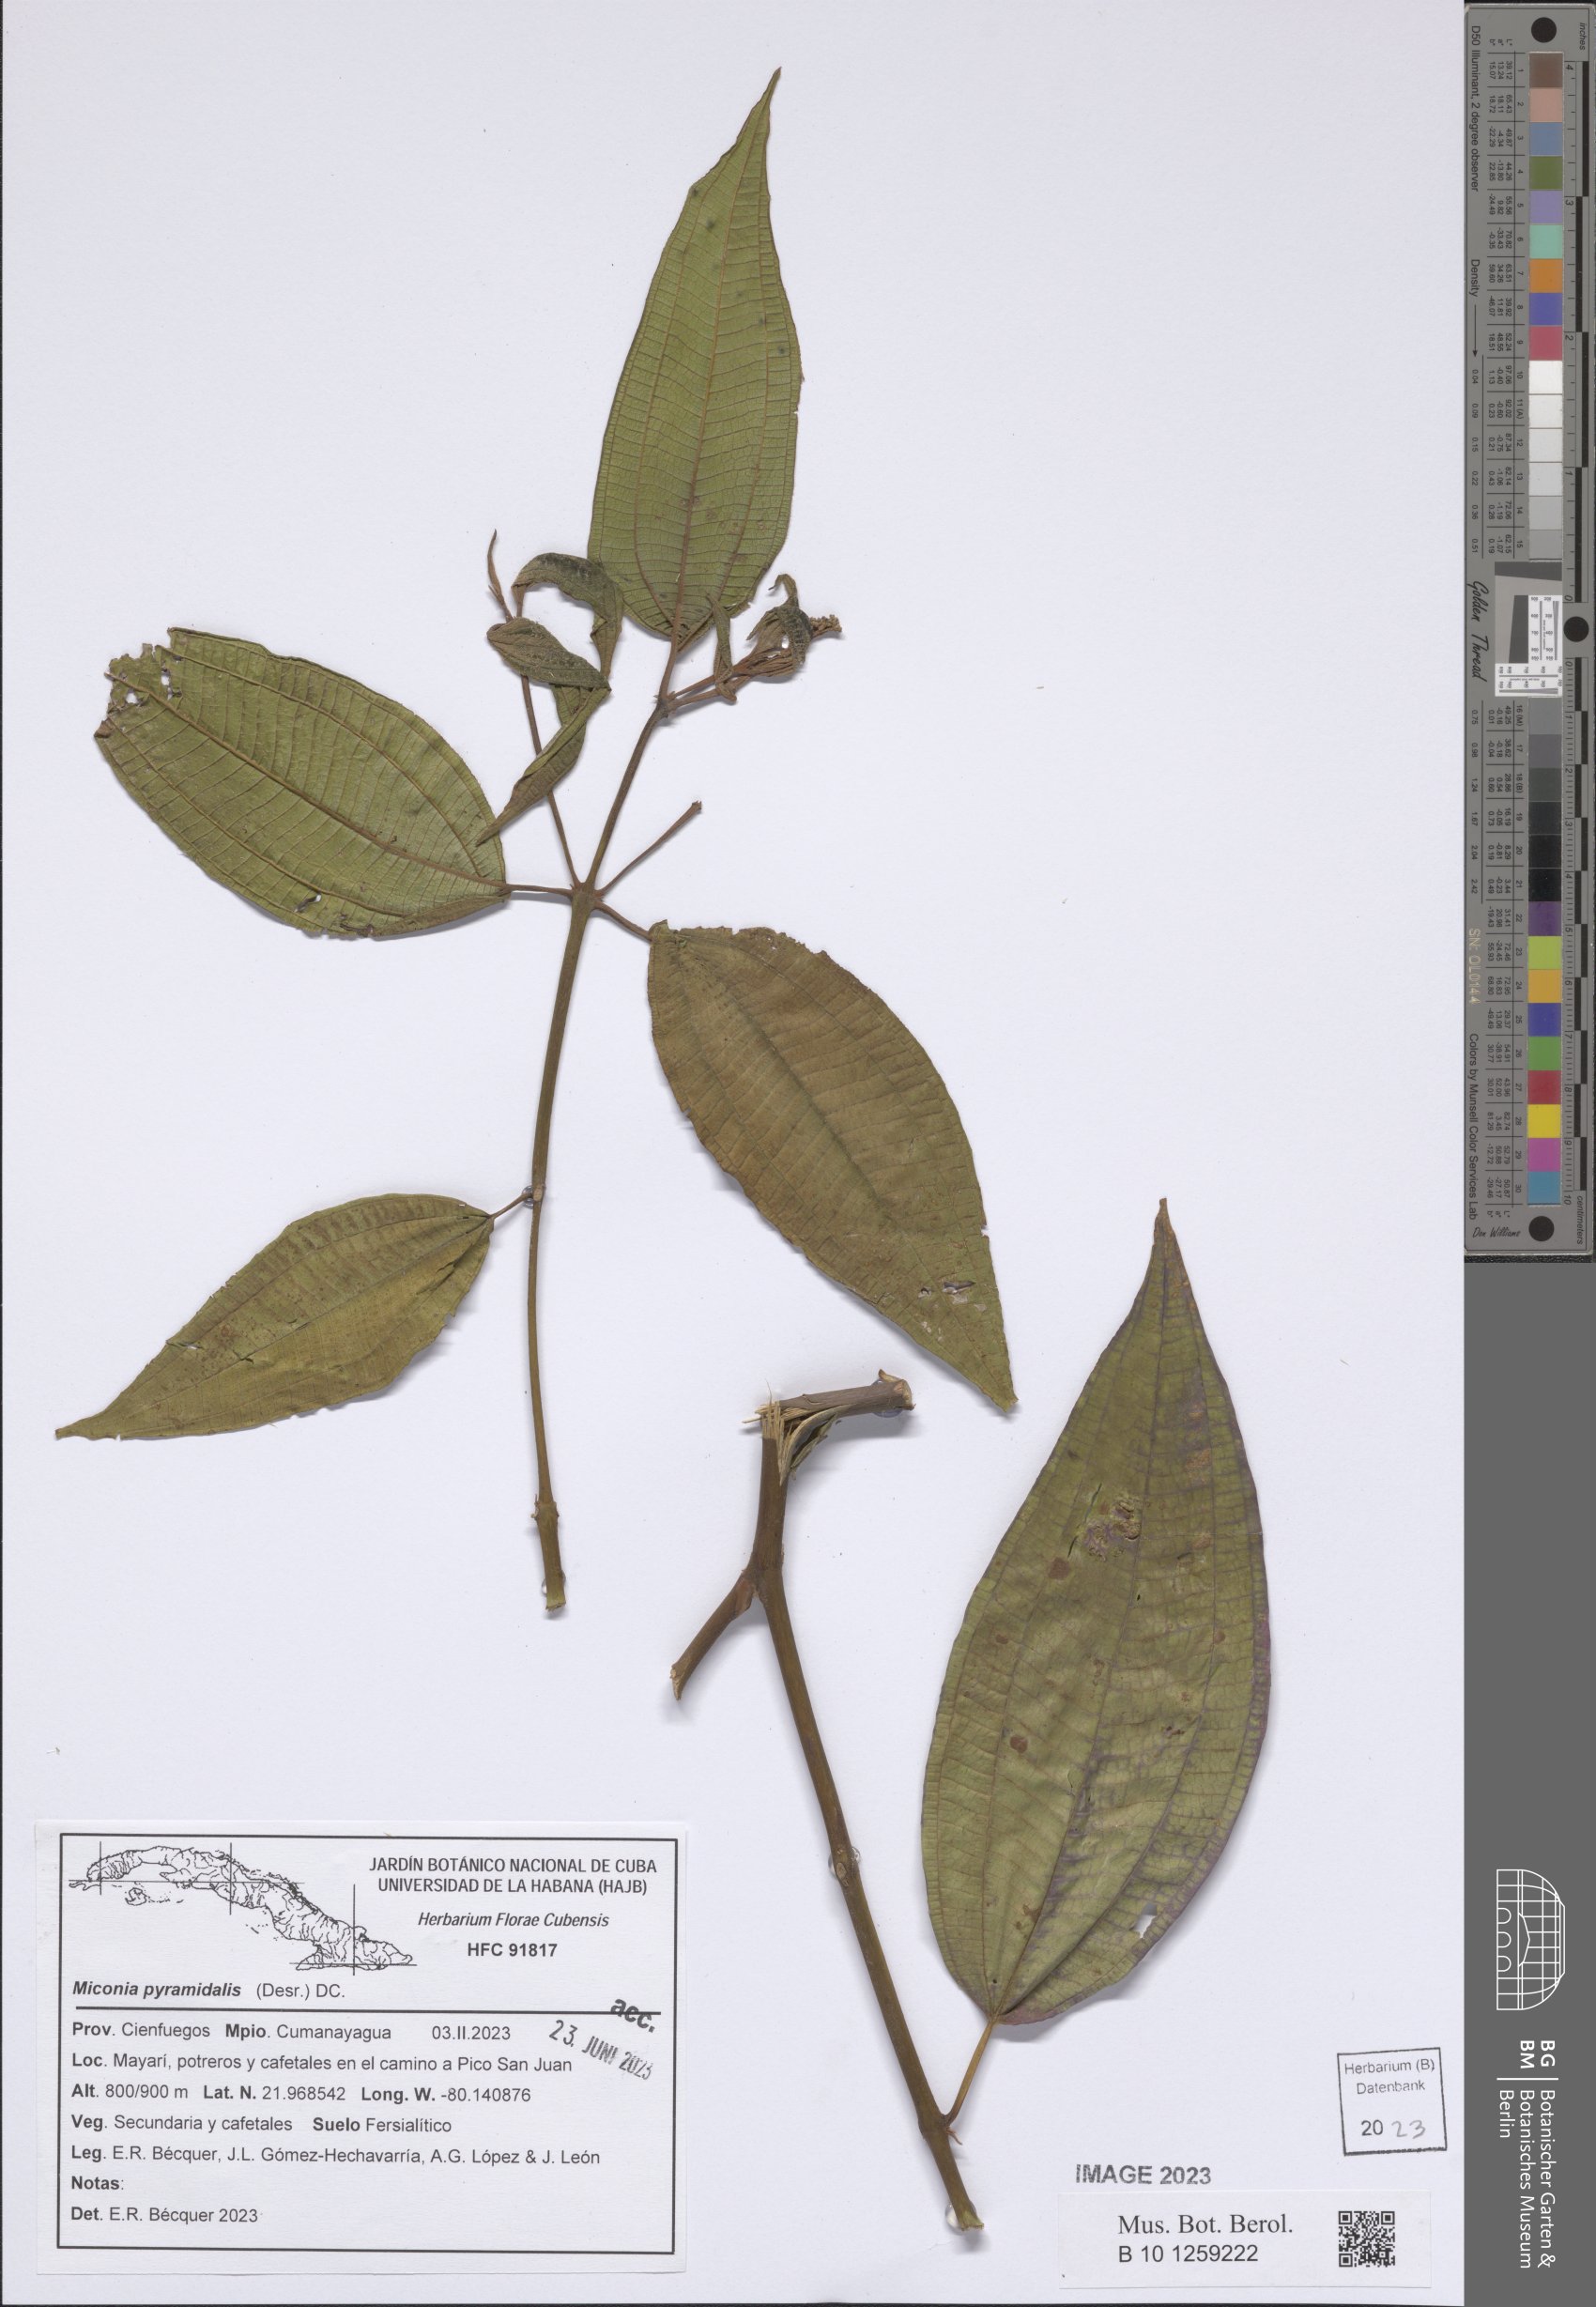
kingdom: Plantae
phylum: Tracheophyta
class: Magnoliopsida
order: Myrtales
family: Melastomataceae
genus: Miconia
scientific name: Miconia pyramidalis
